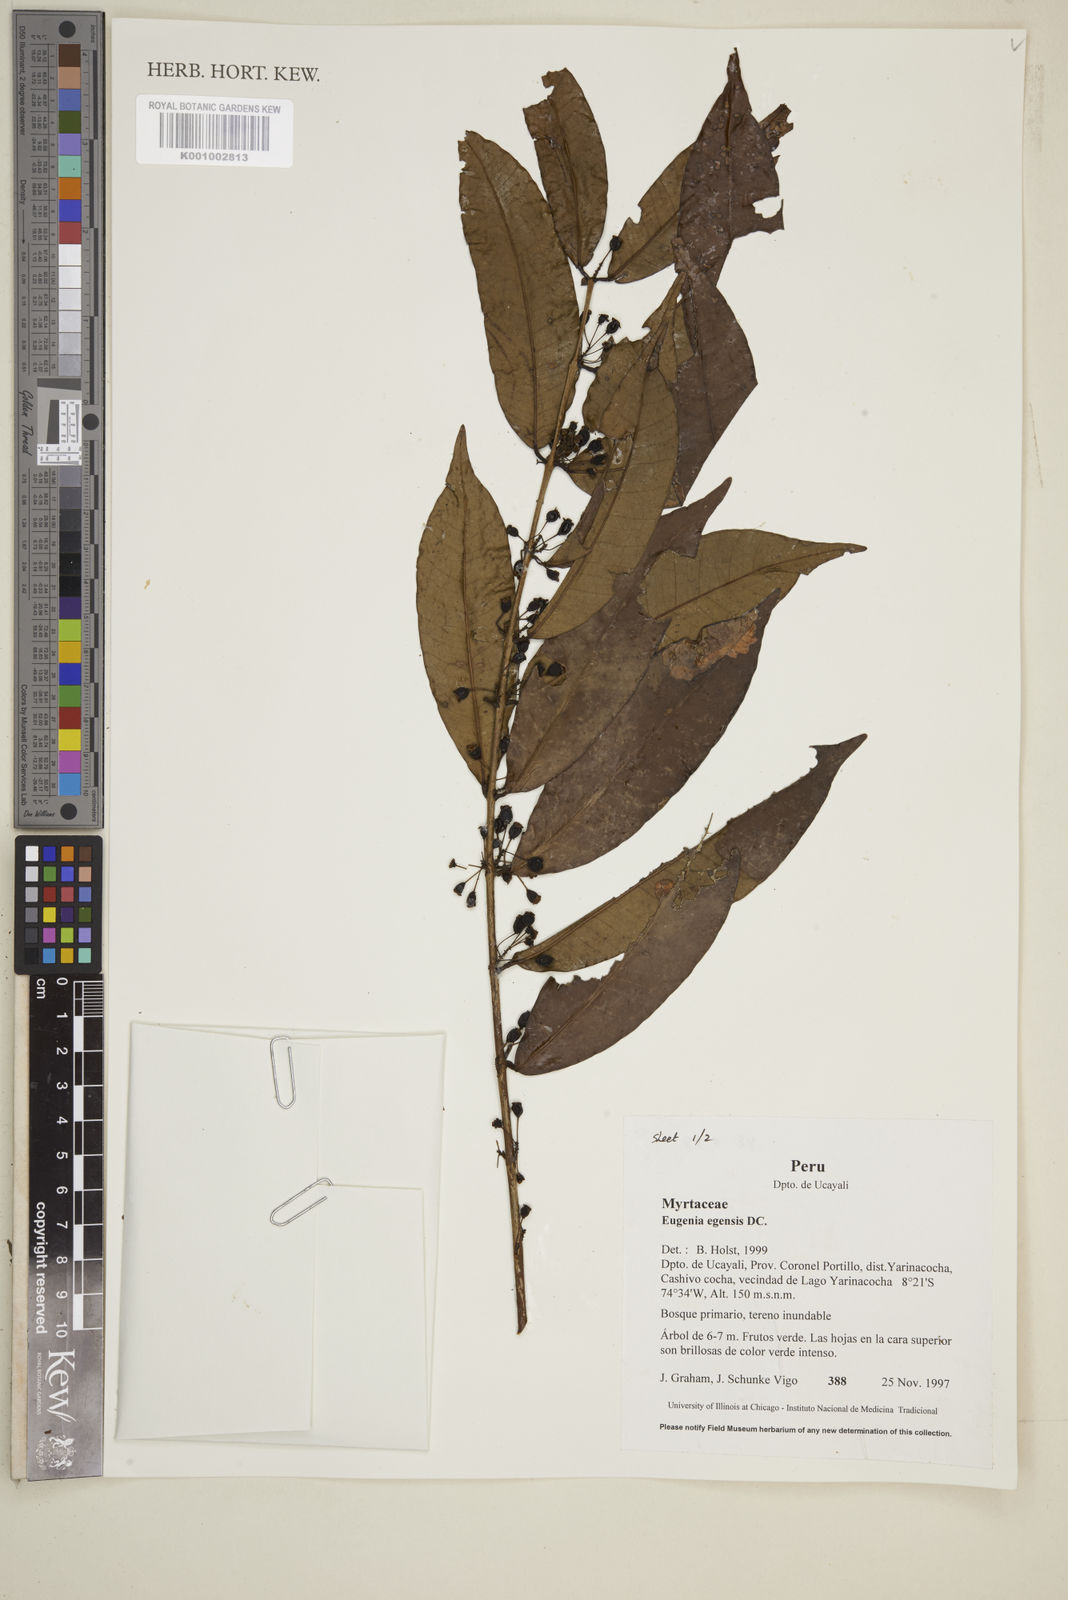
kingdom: Plantae
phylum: Tracheophyta
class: Magnoliopsida
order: Myrtales
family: Myrtaceae
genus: Eugenia
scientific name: Eugenia egensis
